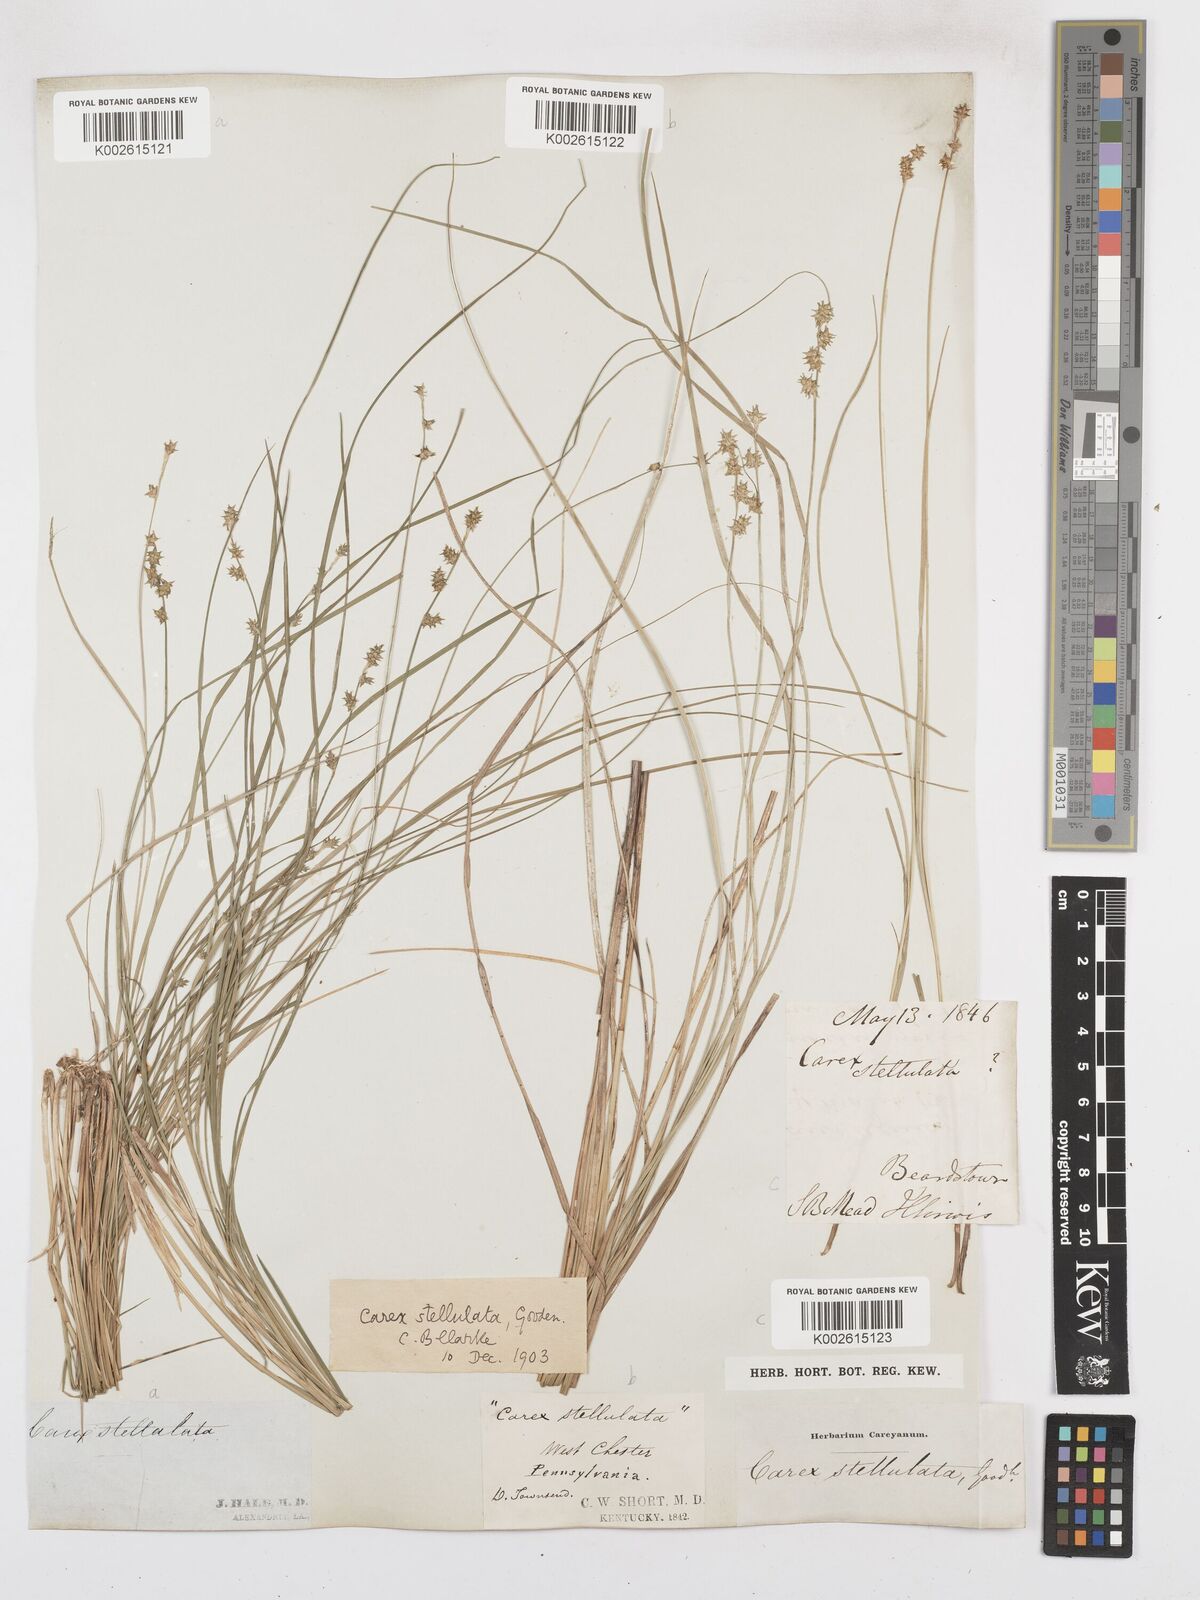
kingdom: Plantae
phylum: Tracheophyta
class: Liliopsida
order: Poales
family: Cyperaceae
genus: Carex
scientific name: Carex echinata
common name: Star sedge
